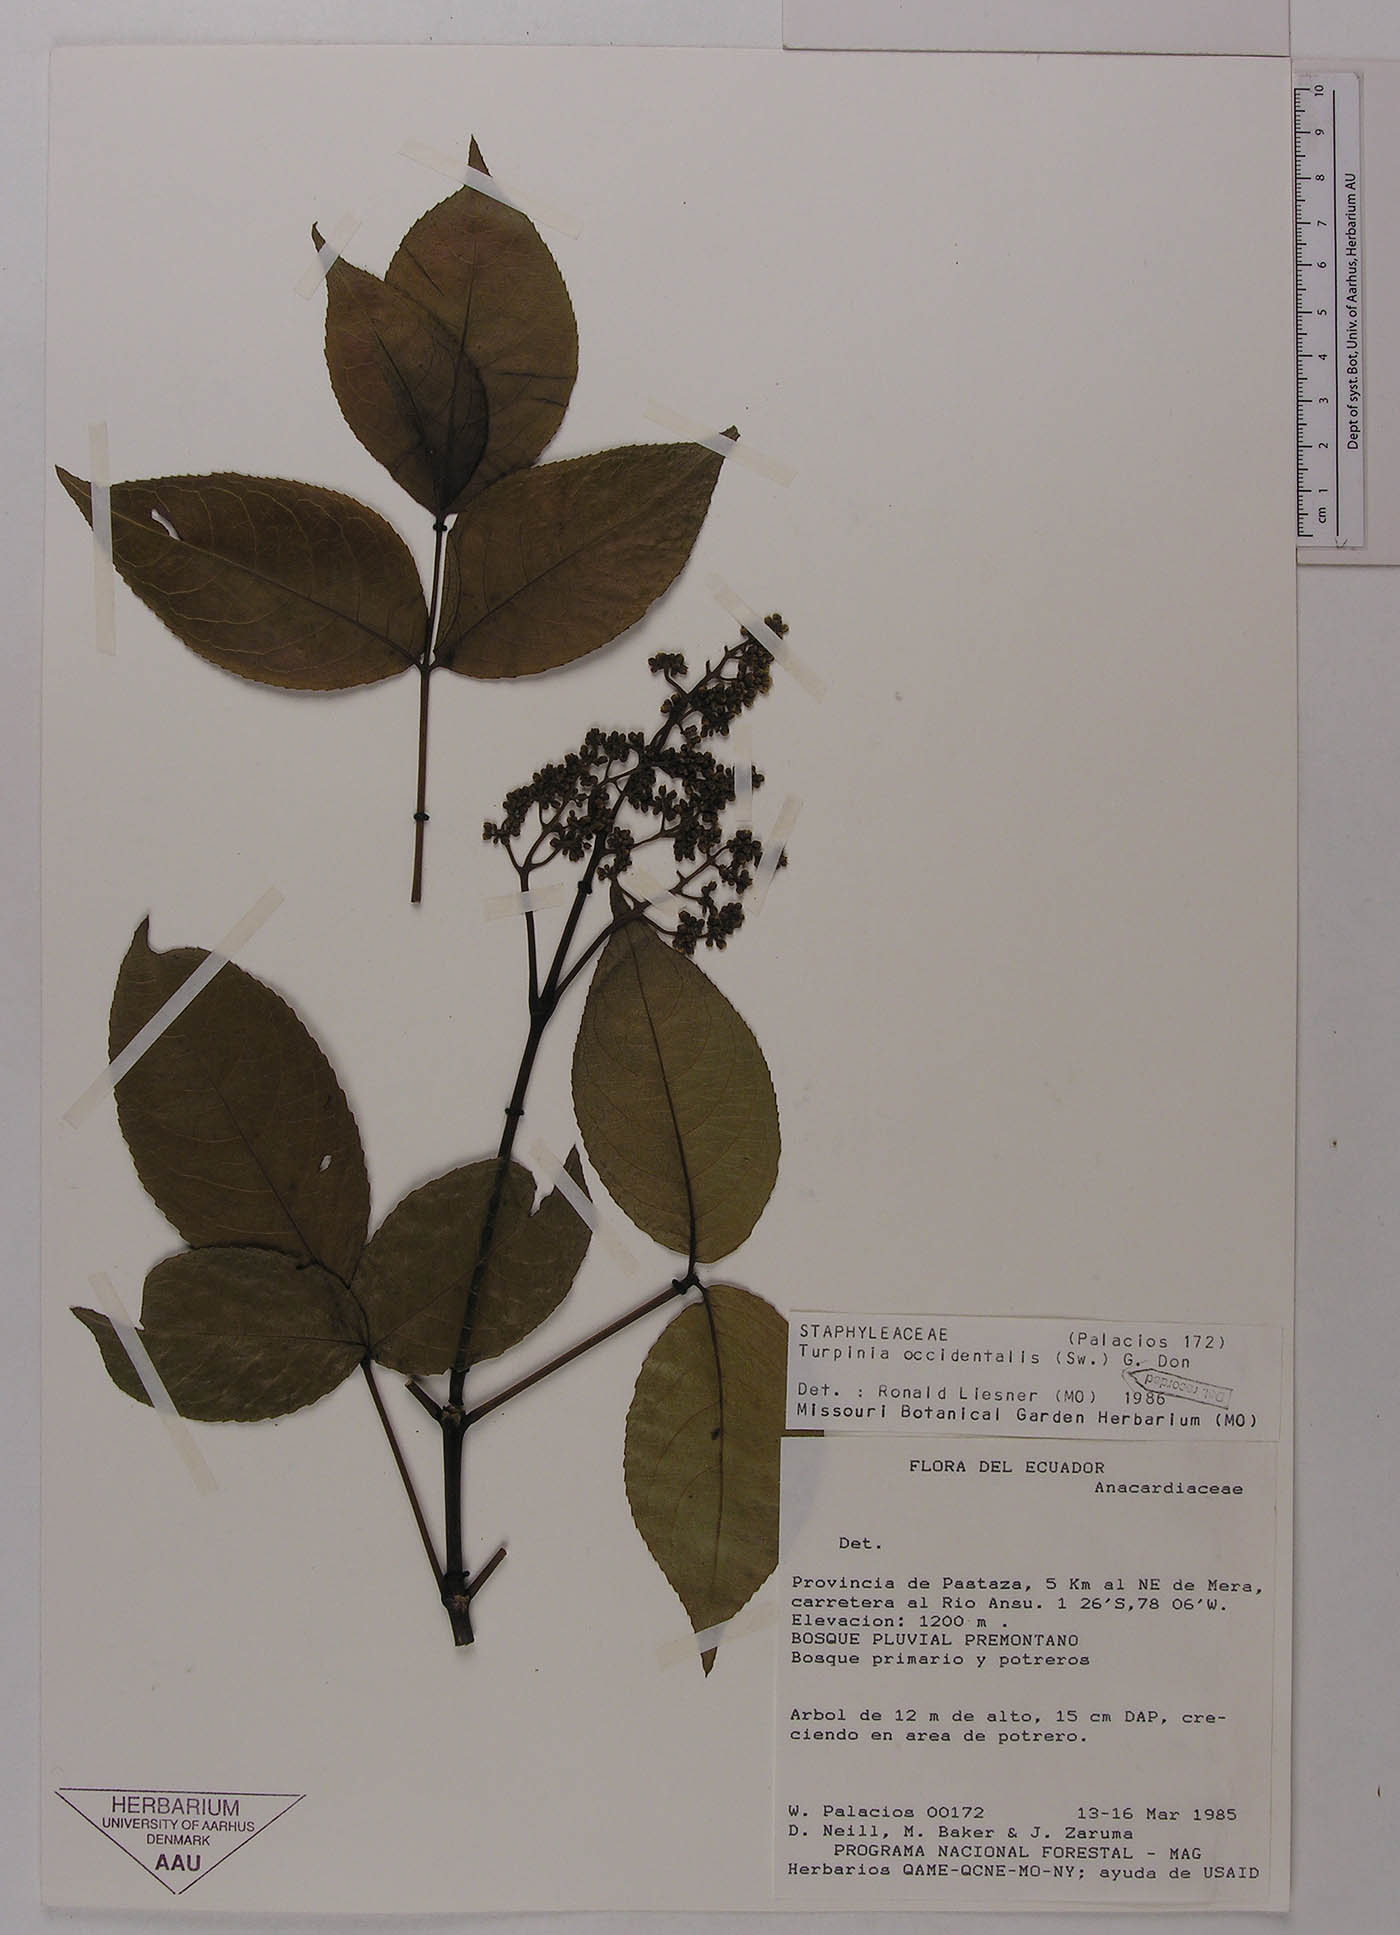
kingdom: Plantae
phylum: Tracheophyta
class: Magnoliopsida
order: Crossosomatales
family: Staphyleaceae
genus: Turpinia
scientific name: Turpinia occidentalis
